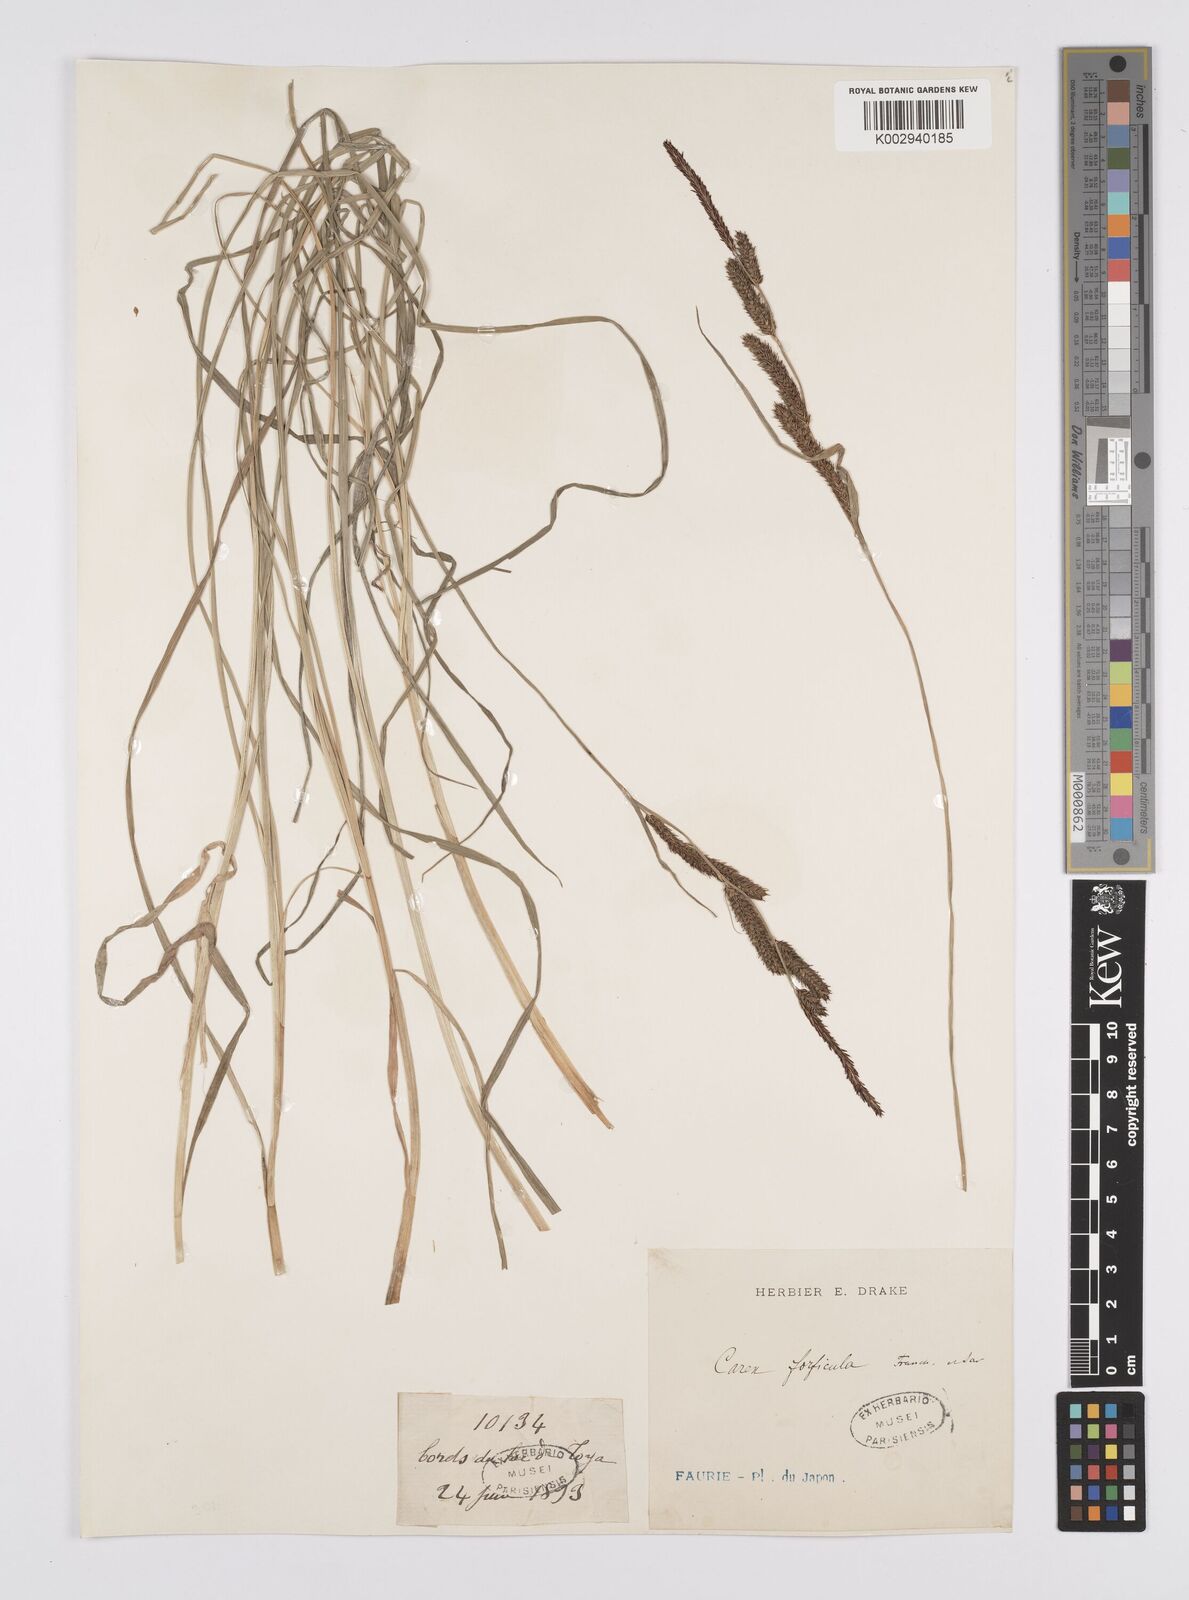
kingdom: Plantae
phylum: Tracheophyta
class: Liliopsida
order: Poales
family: Cyperaceae
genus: Carex
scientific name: Carex forficula
